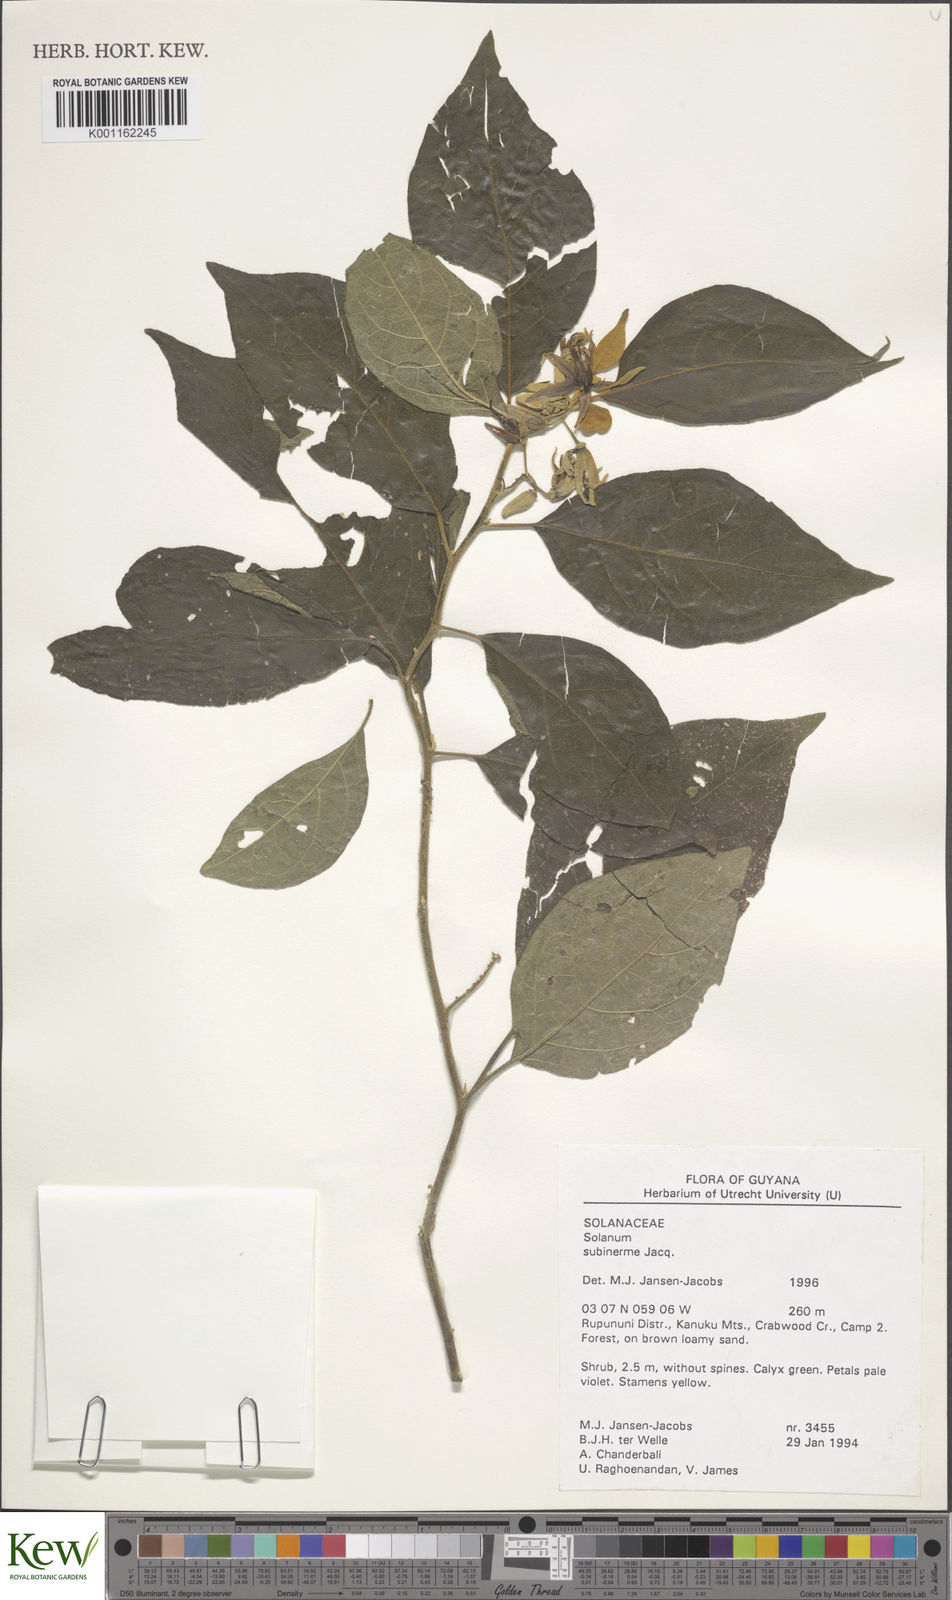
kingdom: Plantae
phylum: Tracheophyta
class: Magnoliopsida
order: Solanales
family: Solanaceae
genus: Solanum
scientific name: Solanum subinerme
